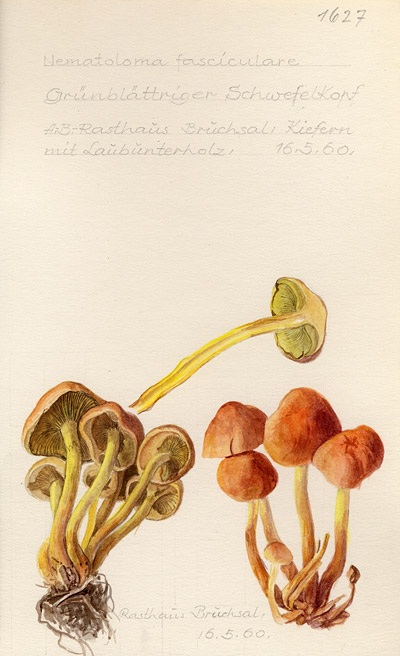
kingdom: Fungi
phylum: Basidiomycota
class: Agaricomycetes
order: Agaricales
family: Strophariaceae
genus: Hypholoma
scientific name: Hypholoma fasciculare
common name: Sulphur tuft
